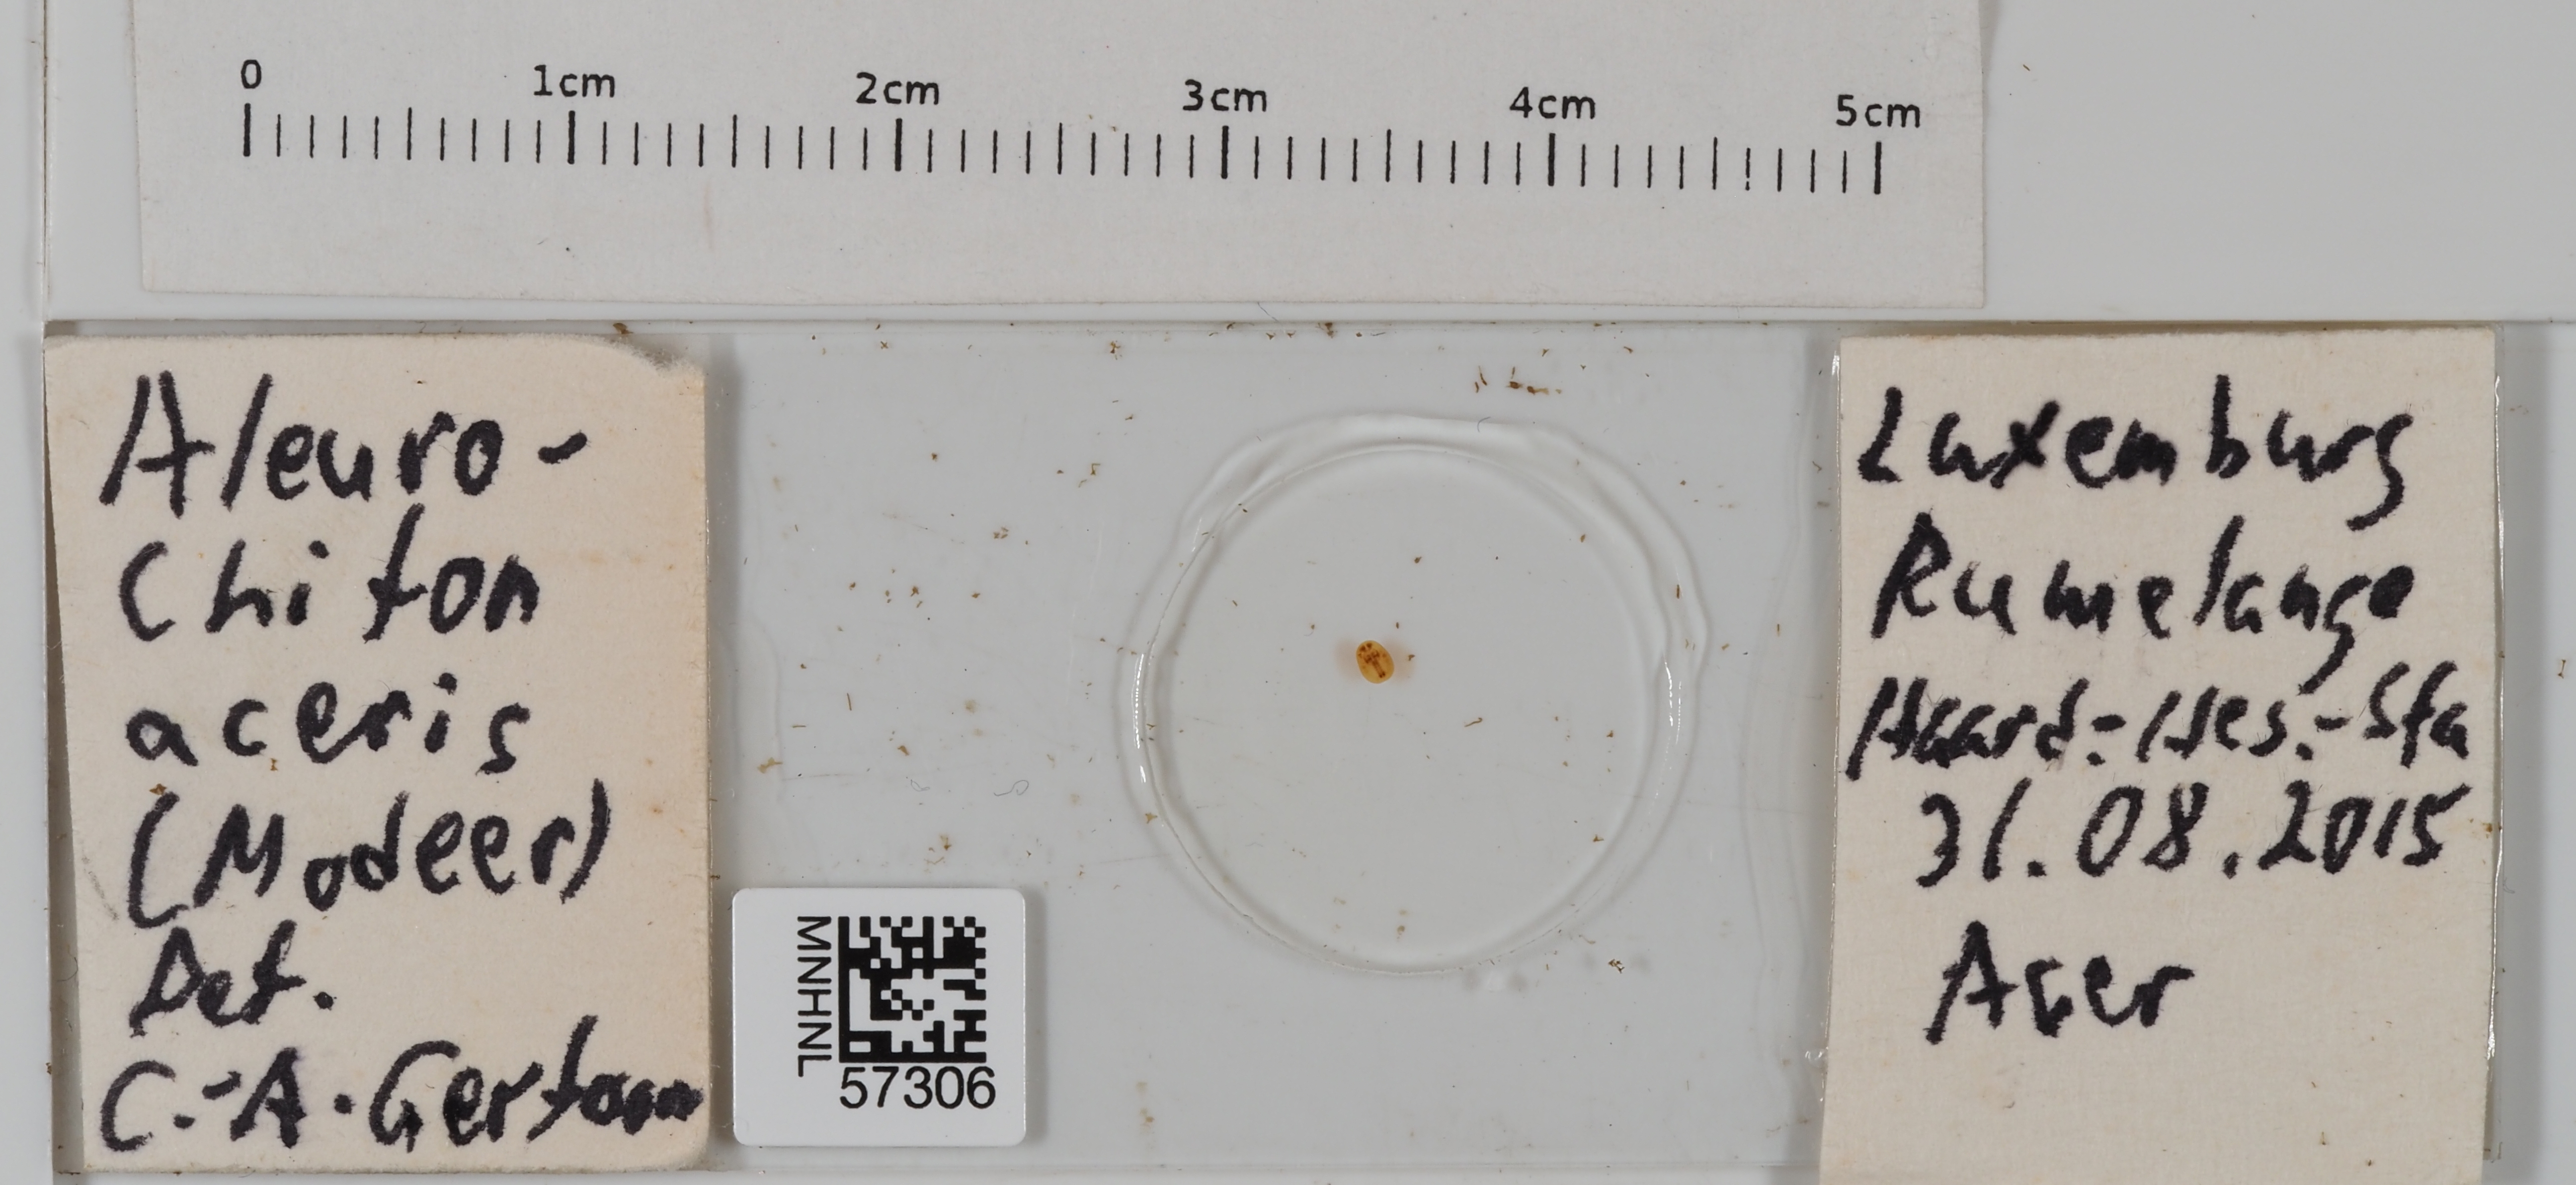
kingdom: Animalia
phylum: Arthropoda
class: Insecta
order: Hemiptera
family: Aleyrodidae
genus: Aleurochiton
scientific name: Aleurochiton aceris
